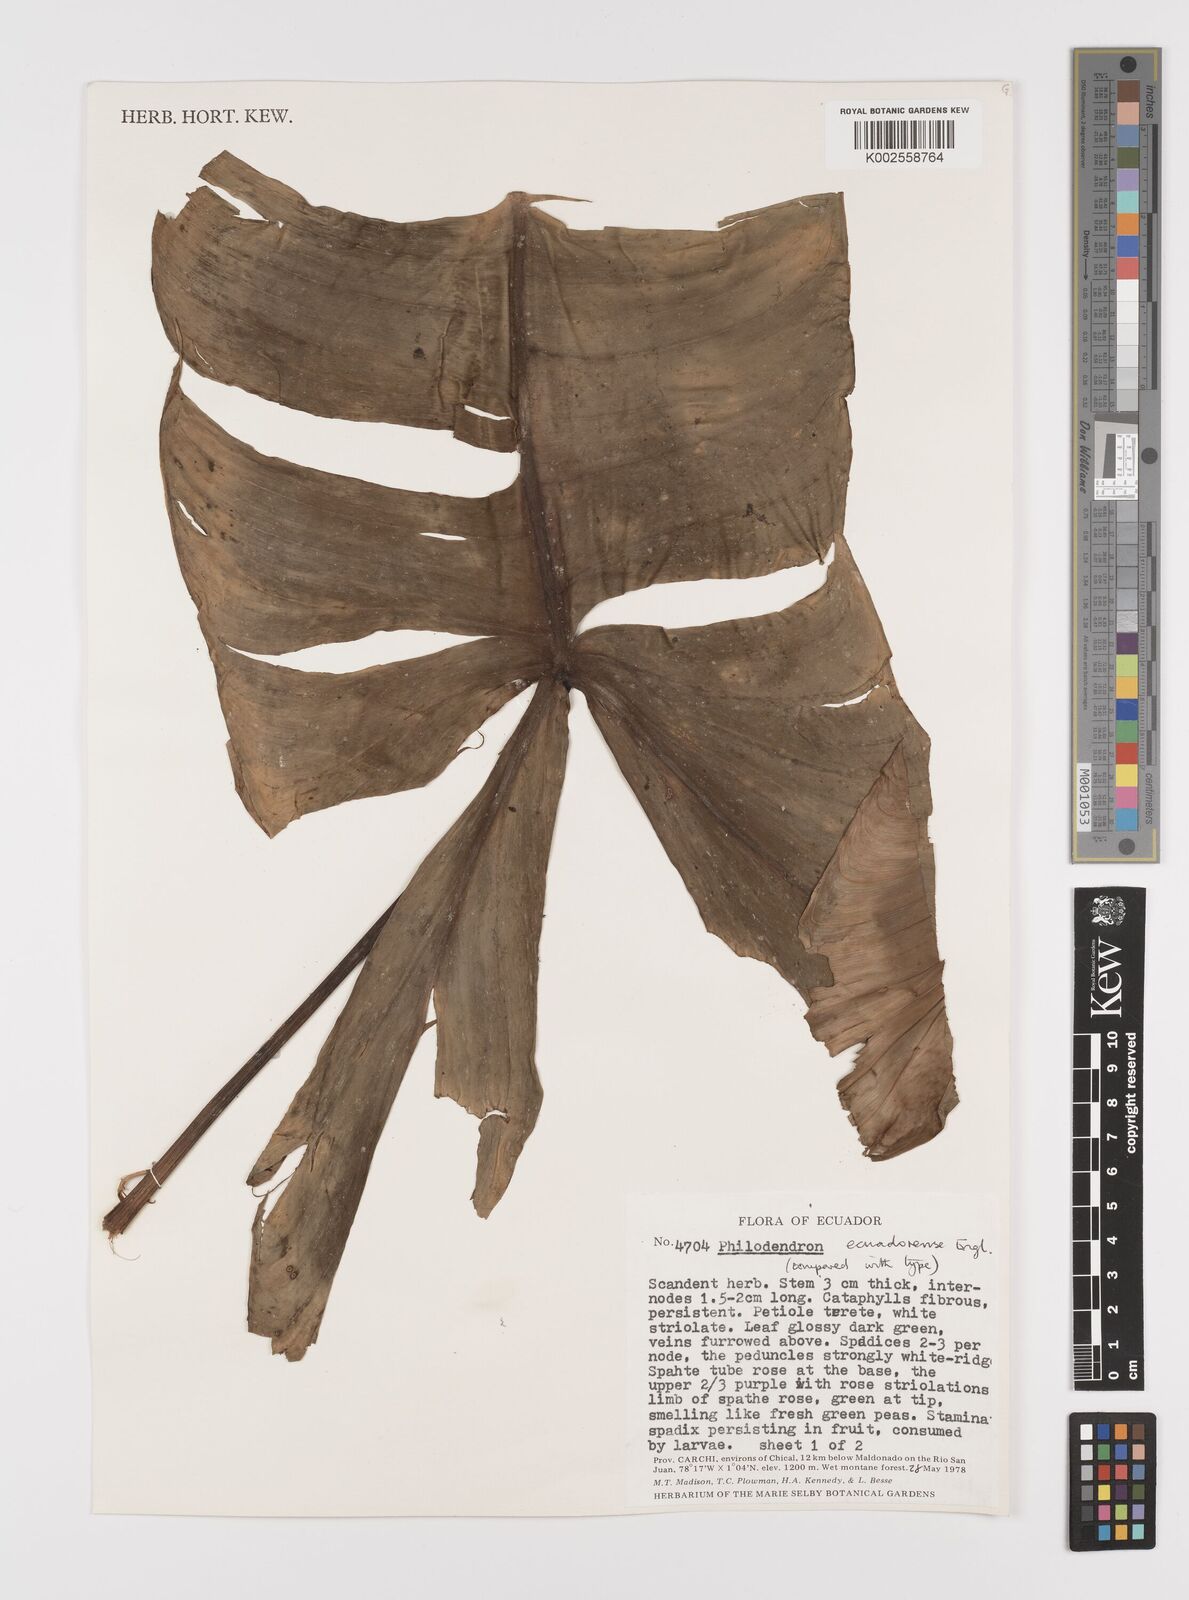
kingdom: Plantae
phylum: Tracheophyta
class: Liliopsida
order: Alismatales
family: Araceae
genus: Philodendron
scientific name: Philodendron tenue
